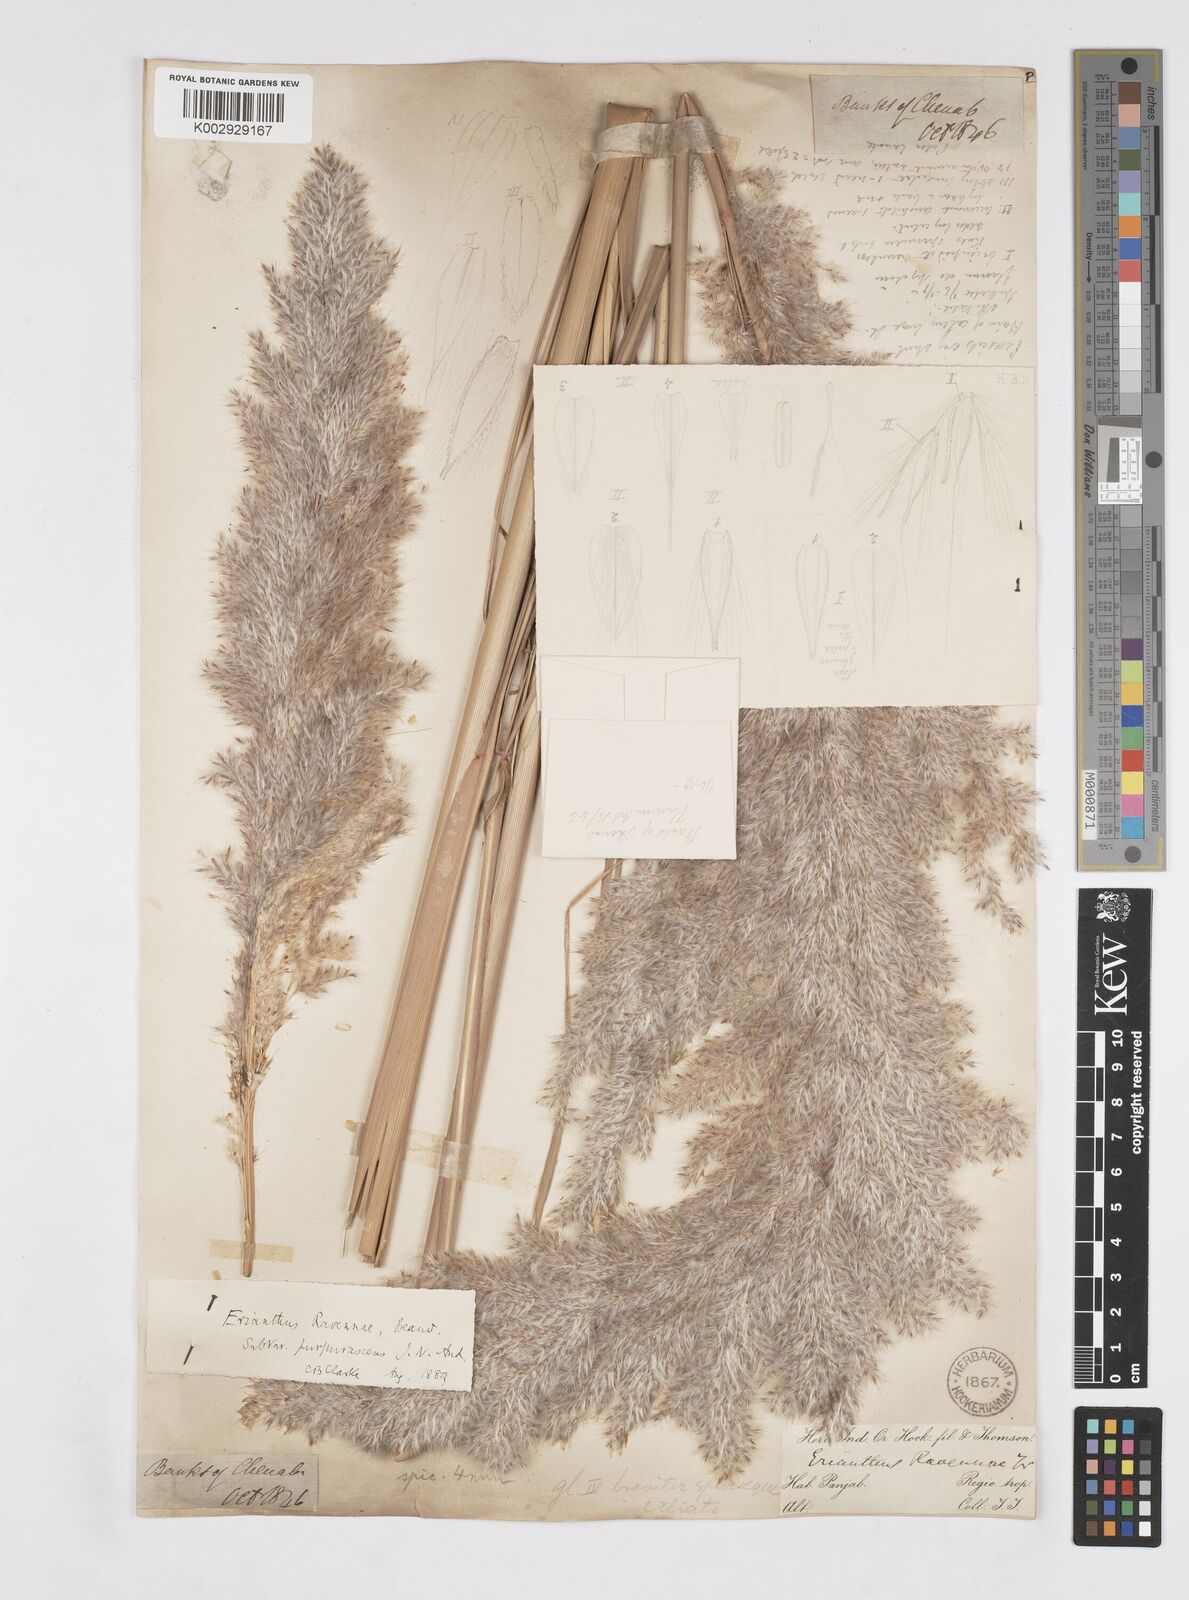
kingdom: Plantae
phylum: Tracheophyta
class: Liliopsida
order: Poales
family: Poaceae
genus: Tripidium
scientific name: Tripidium ravennae
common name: Ravenna grass
